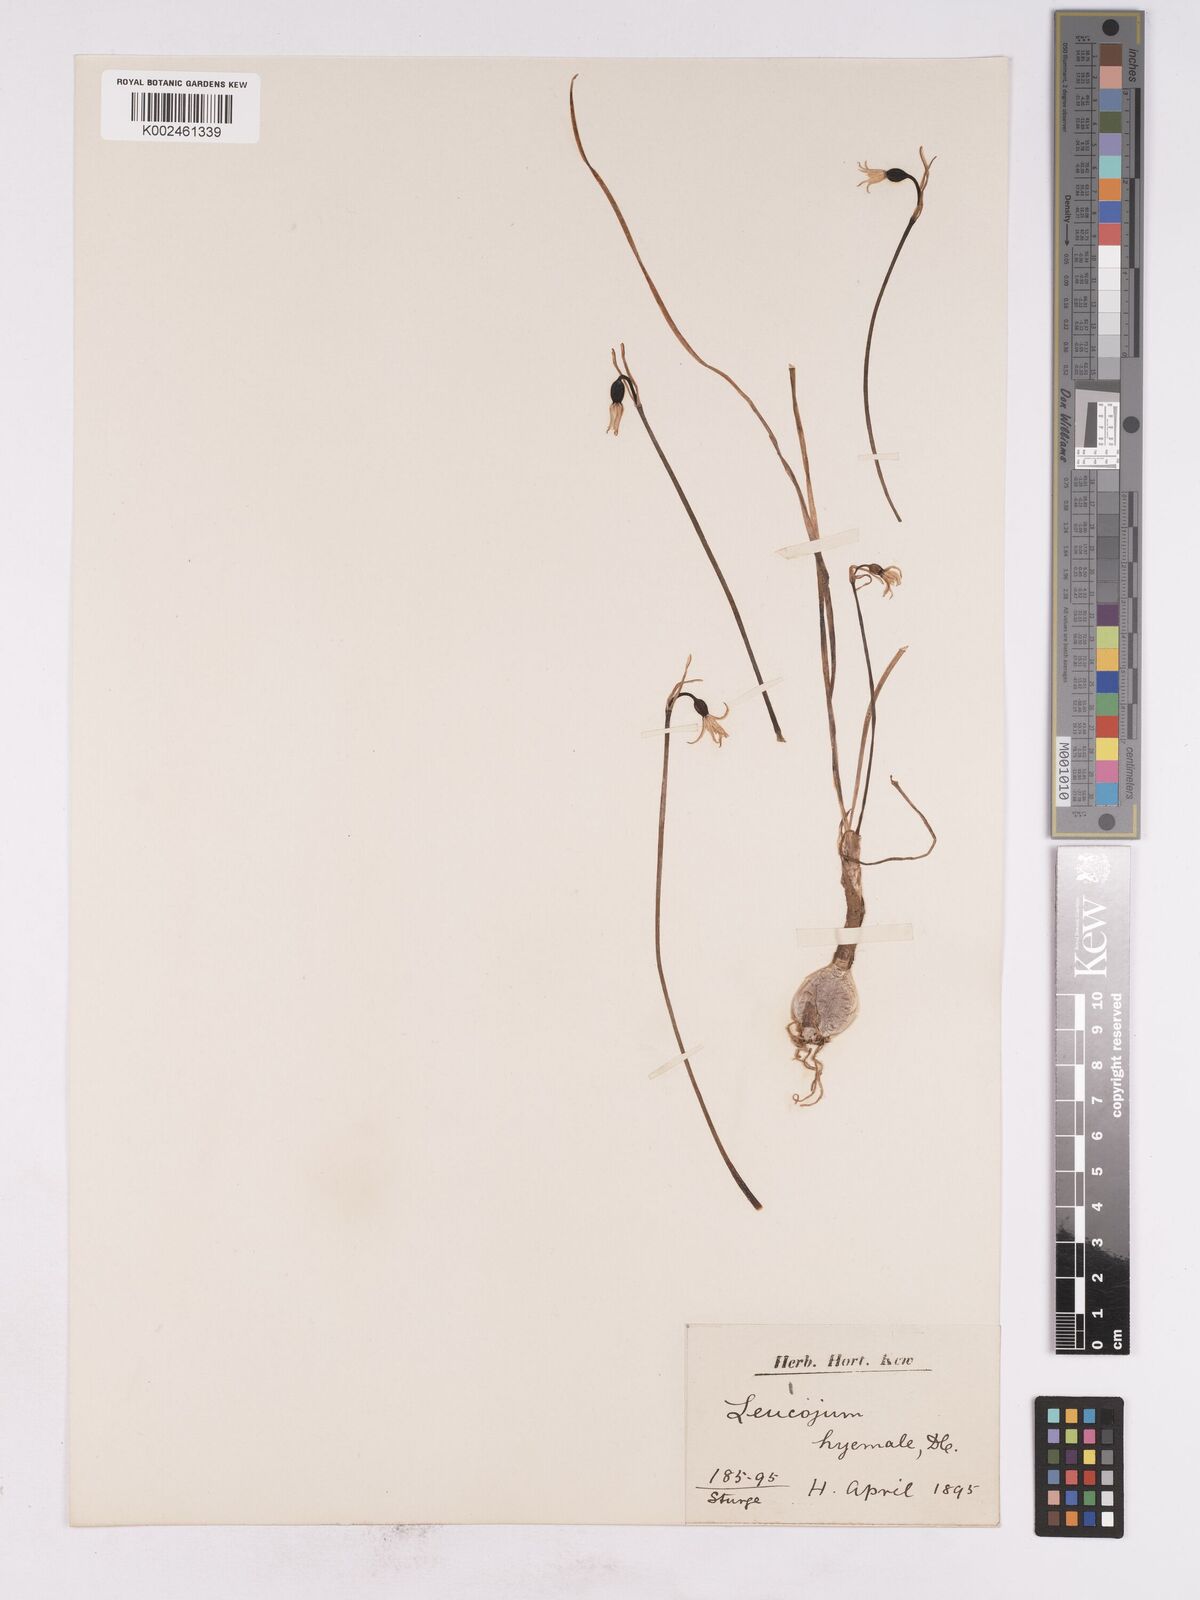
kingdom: Plantae
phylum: Tracheophyta
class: Liliopsida
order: Asparagales
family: Amaryllidaceae
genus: Acis
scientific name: Acis rosea
